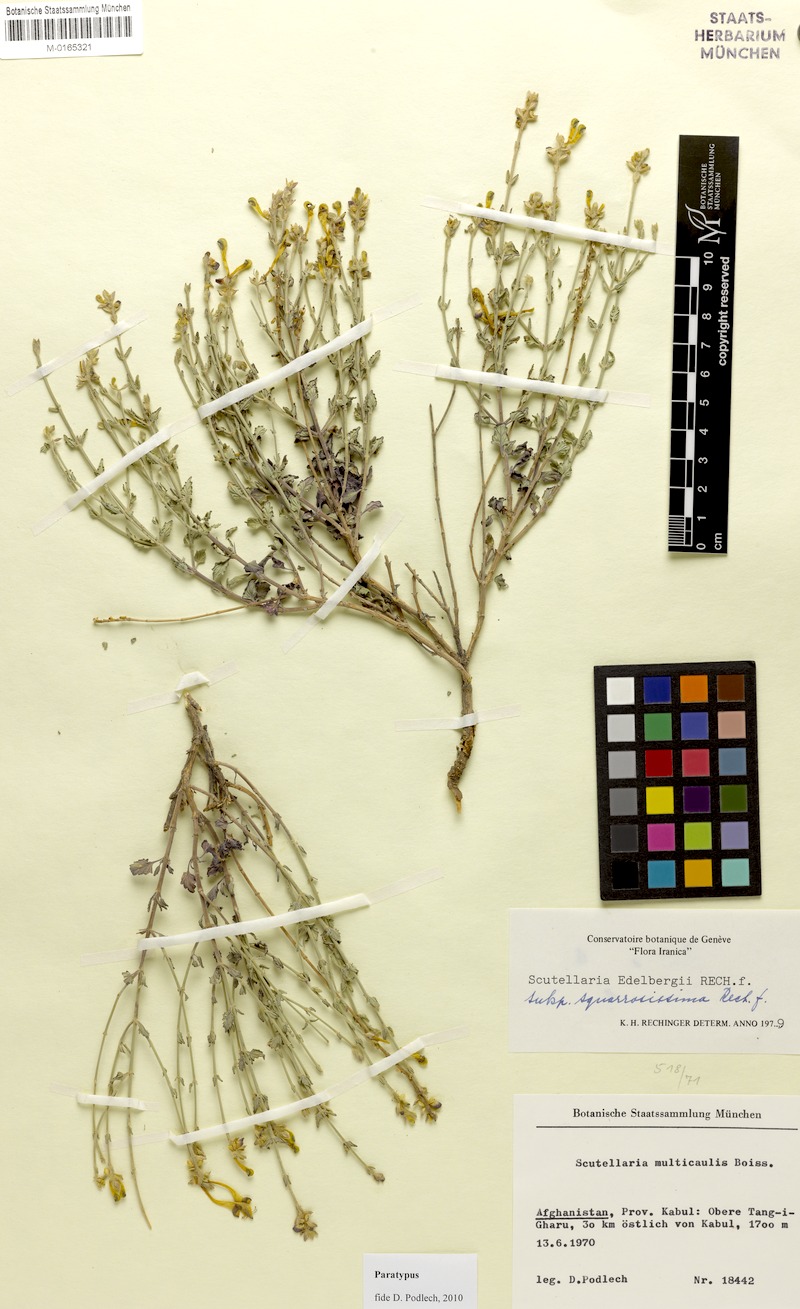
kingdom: Plantae
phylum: Tracheophyta
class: Magnoliopsida
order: Lamiales
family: Lamiaceae
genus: Scutellaria
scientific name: Scutellaria edelbergii
